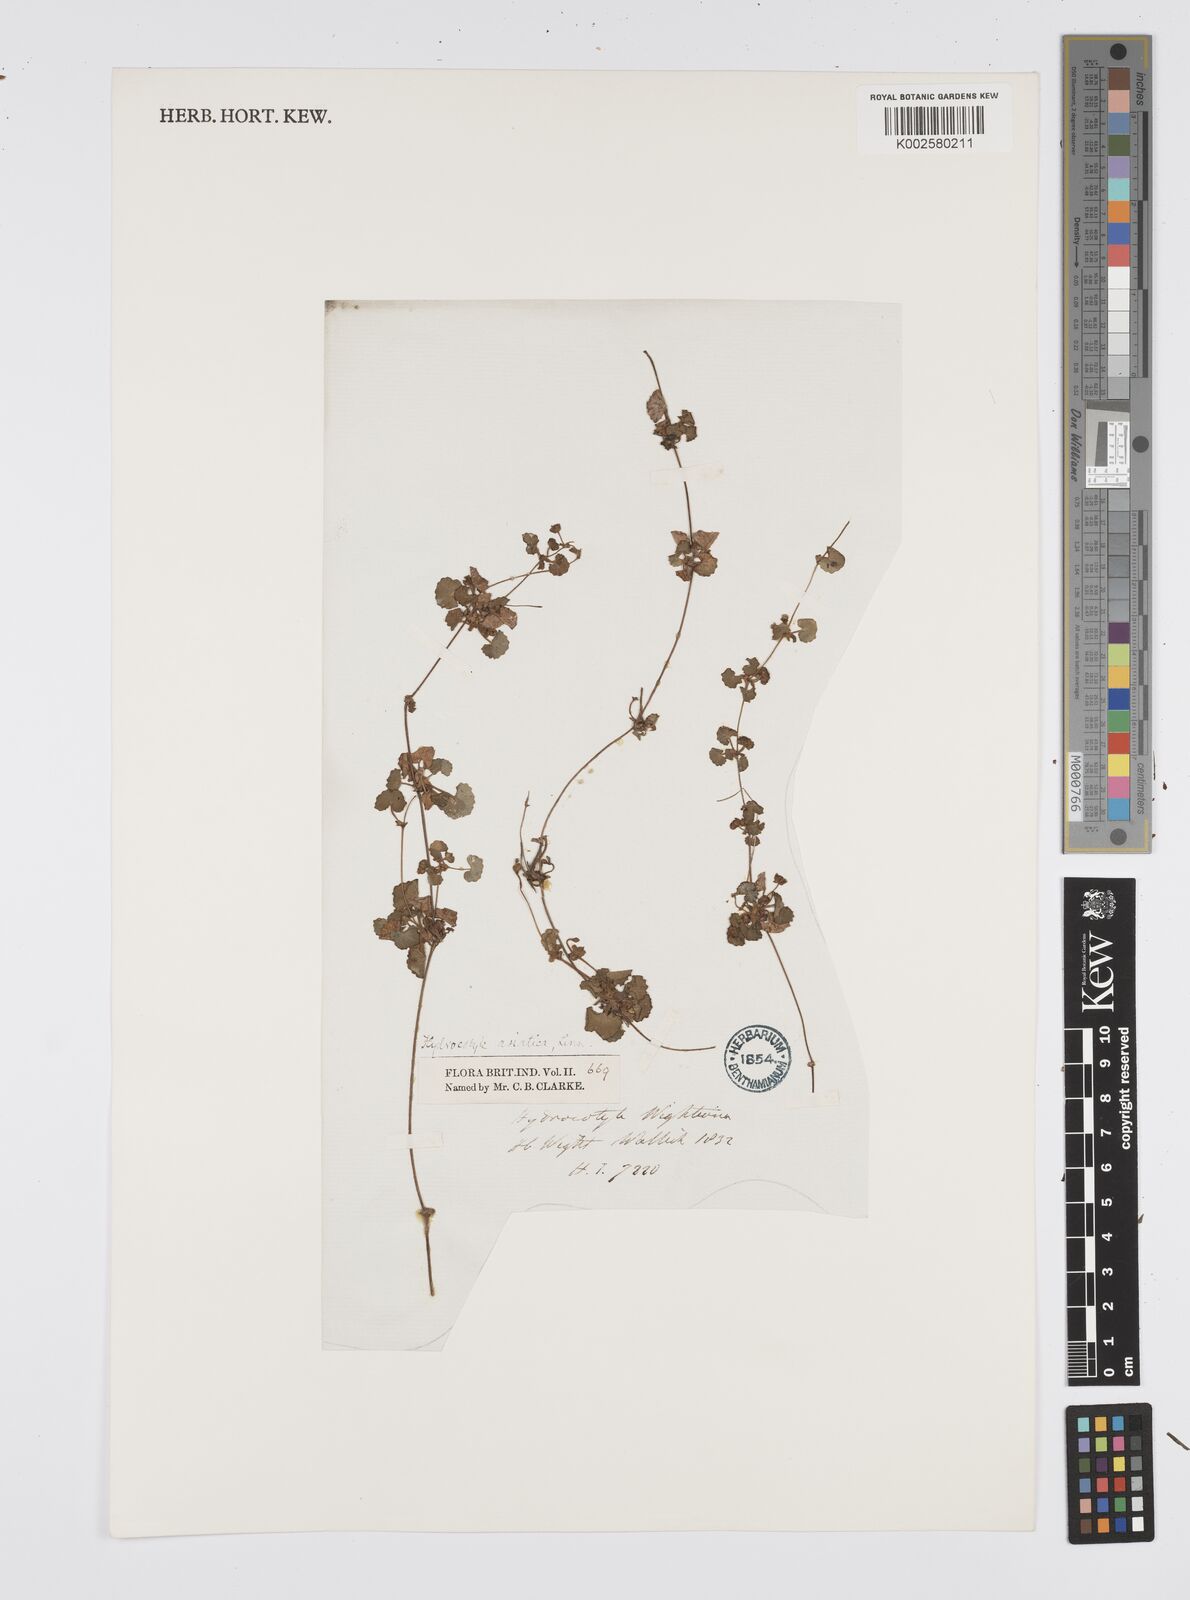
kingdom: Plantae
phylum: Tracheophyta
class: Magnoliopsida
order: Apiales
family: Apiaceae
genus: Centella
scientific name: Centella asiatica
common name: Spadeleaf
